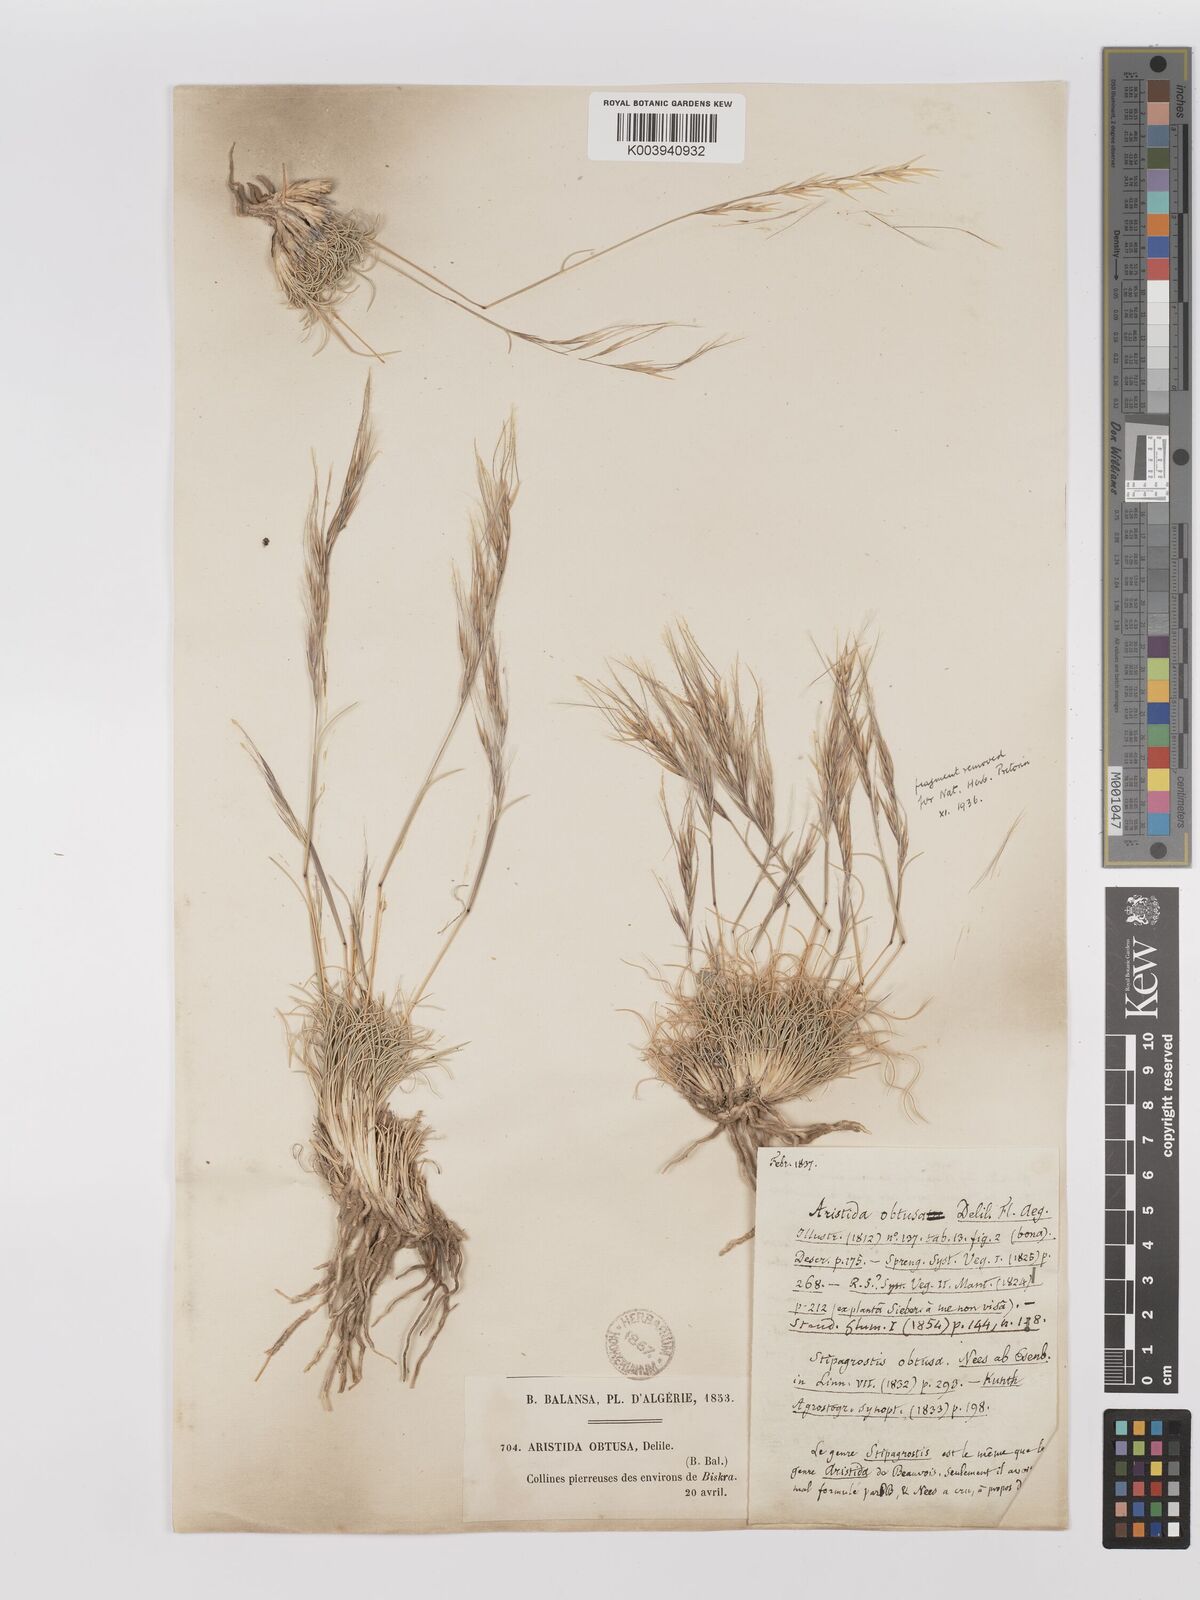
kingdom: Plantae
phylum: Tracheophyta
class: Liliopsida
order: Poales
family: Poaceae
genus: Stipagrostis
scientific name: Stipagrostis obtusa
